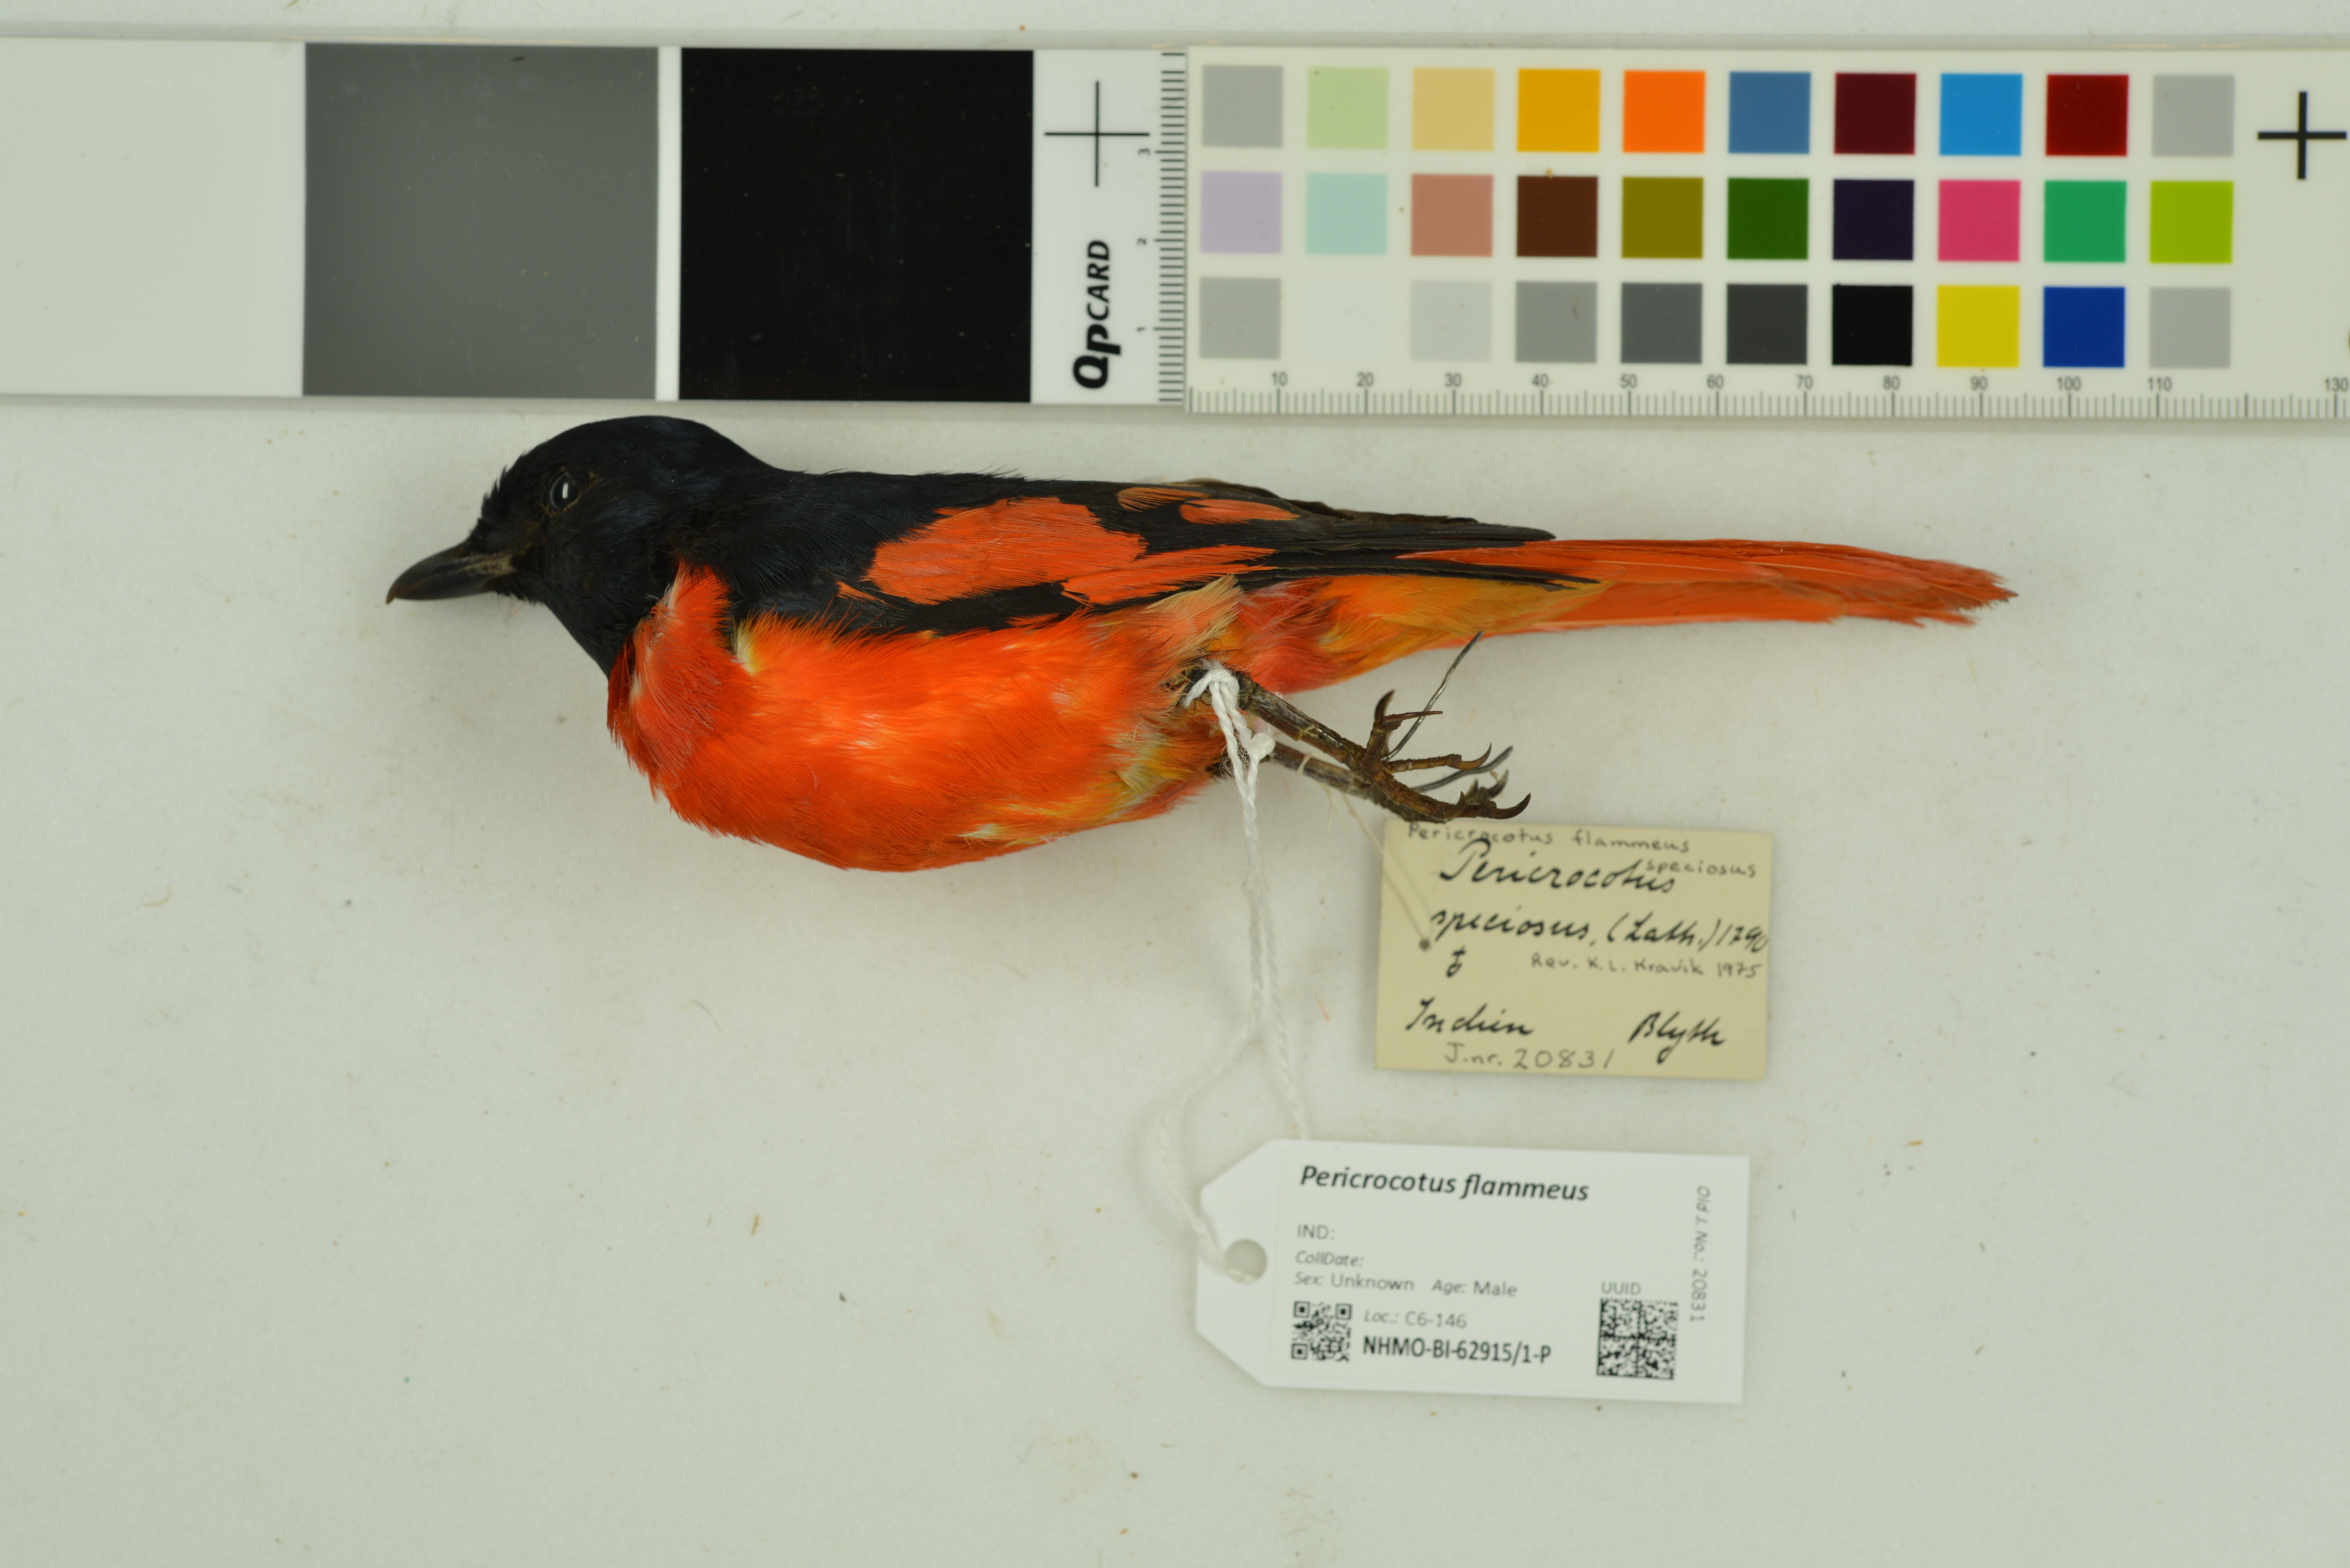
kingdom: Animalia
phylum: Chordata
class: Aves
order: Passeriformes
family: Campephagidae
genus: Pericrocotus
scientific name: Pericrocotus flammeus
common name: Orange minivet
